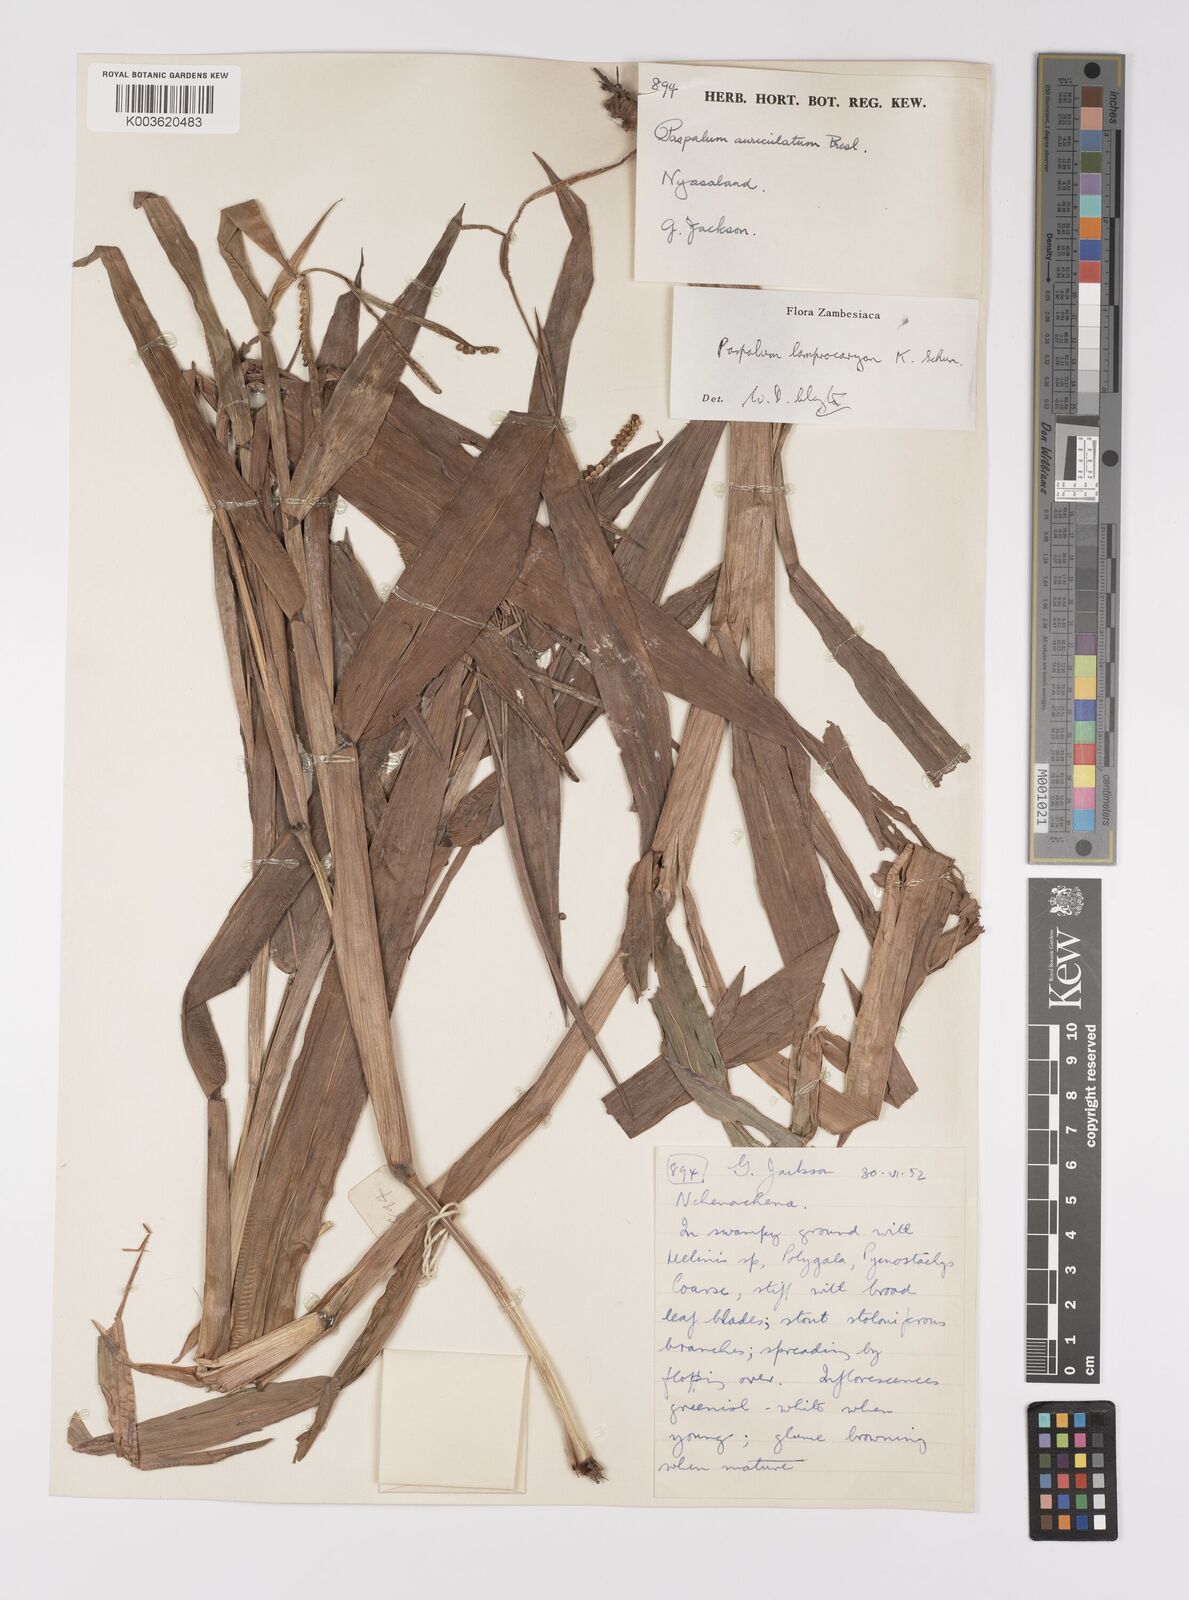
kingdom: Plantae
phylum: Tracheophyta
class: Liliopsida
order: Poales
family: Poaceae
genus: Paspalum
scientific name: Paspalum lamprocaryon
